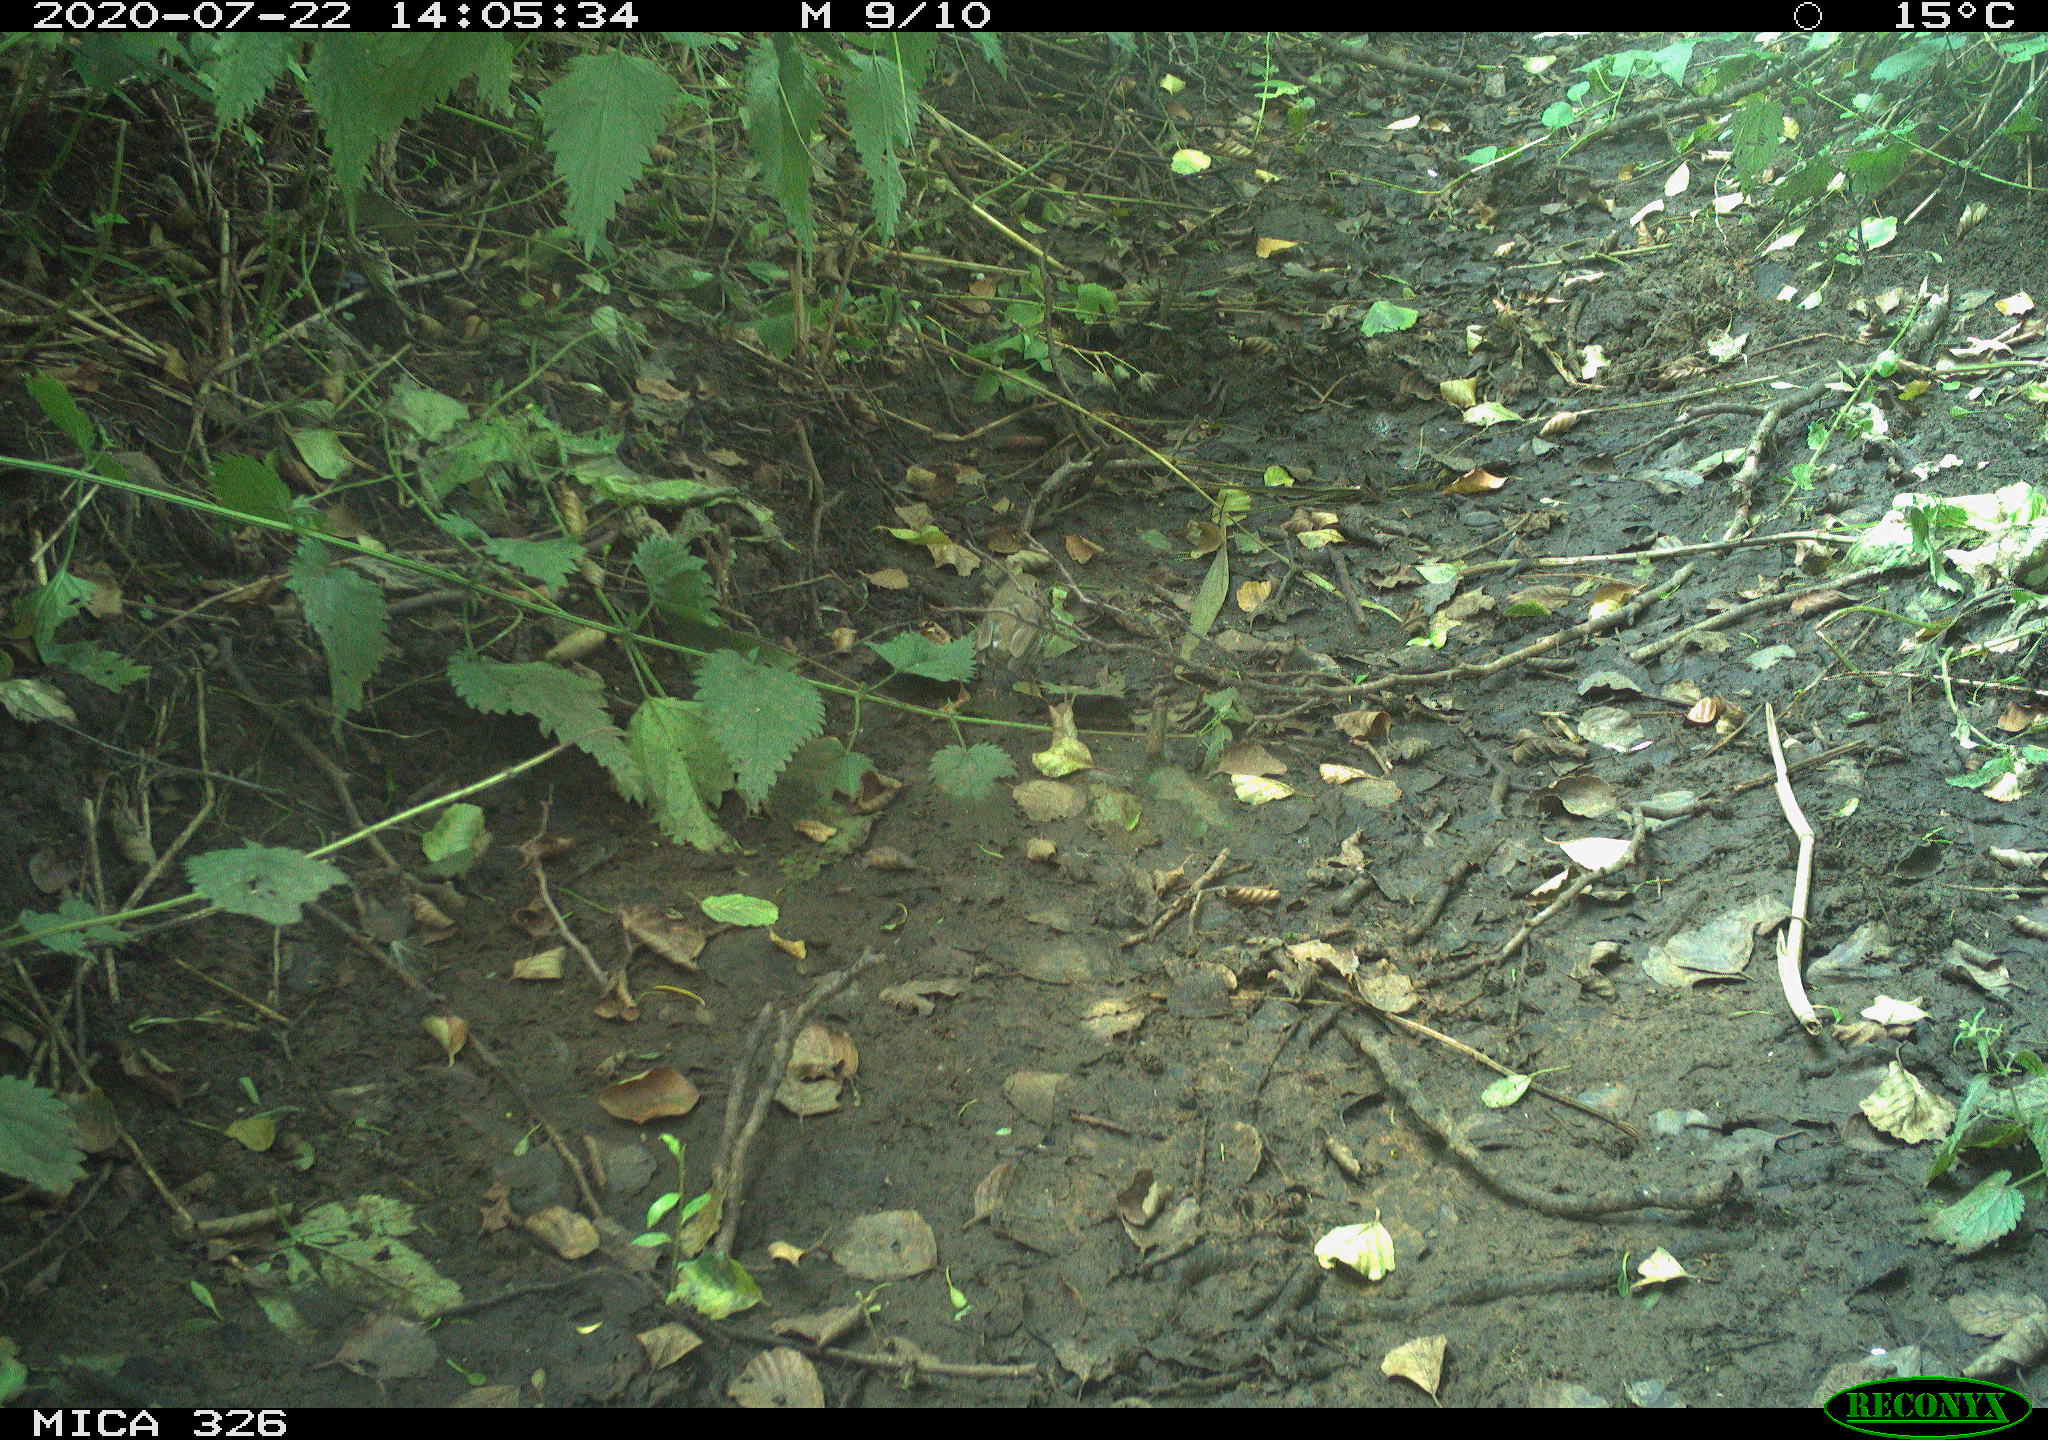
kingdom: Animalia
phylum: Chordata
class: Aves
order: Passeriformes
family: Muscicapidae
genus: Erithacus
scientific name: Erithacus rubecula
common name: European robin
